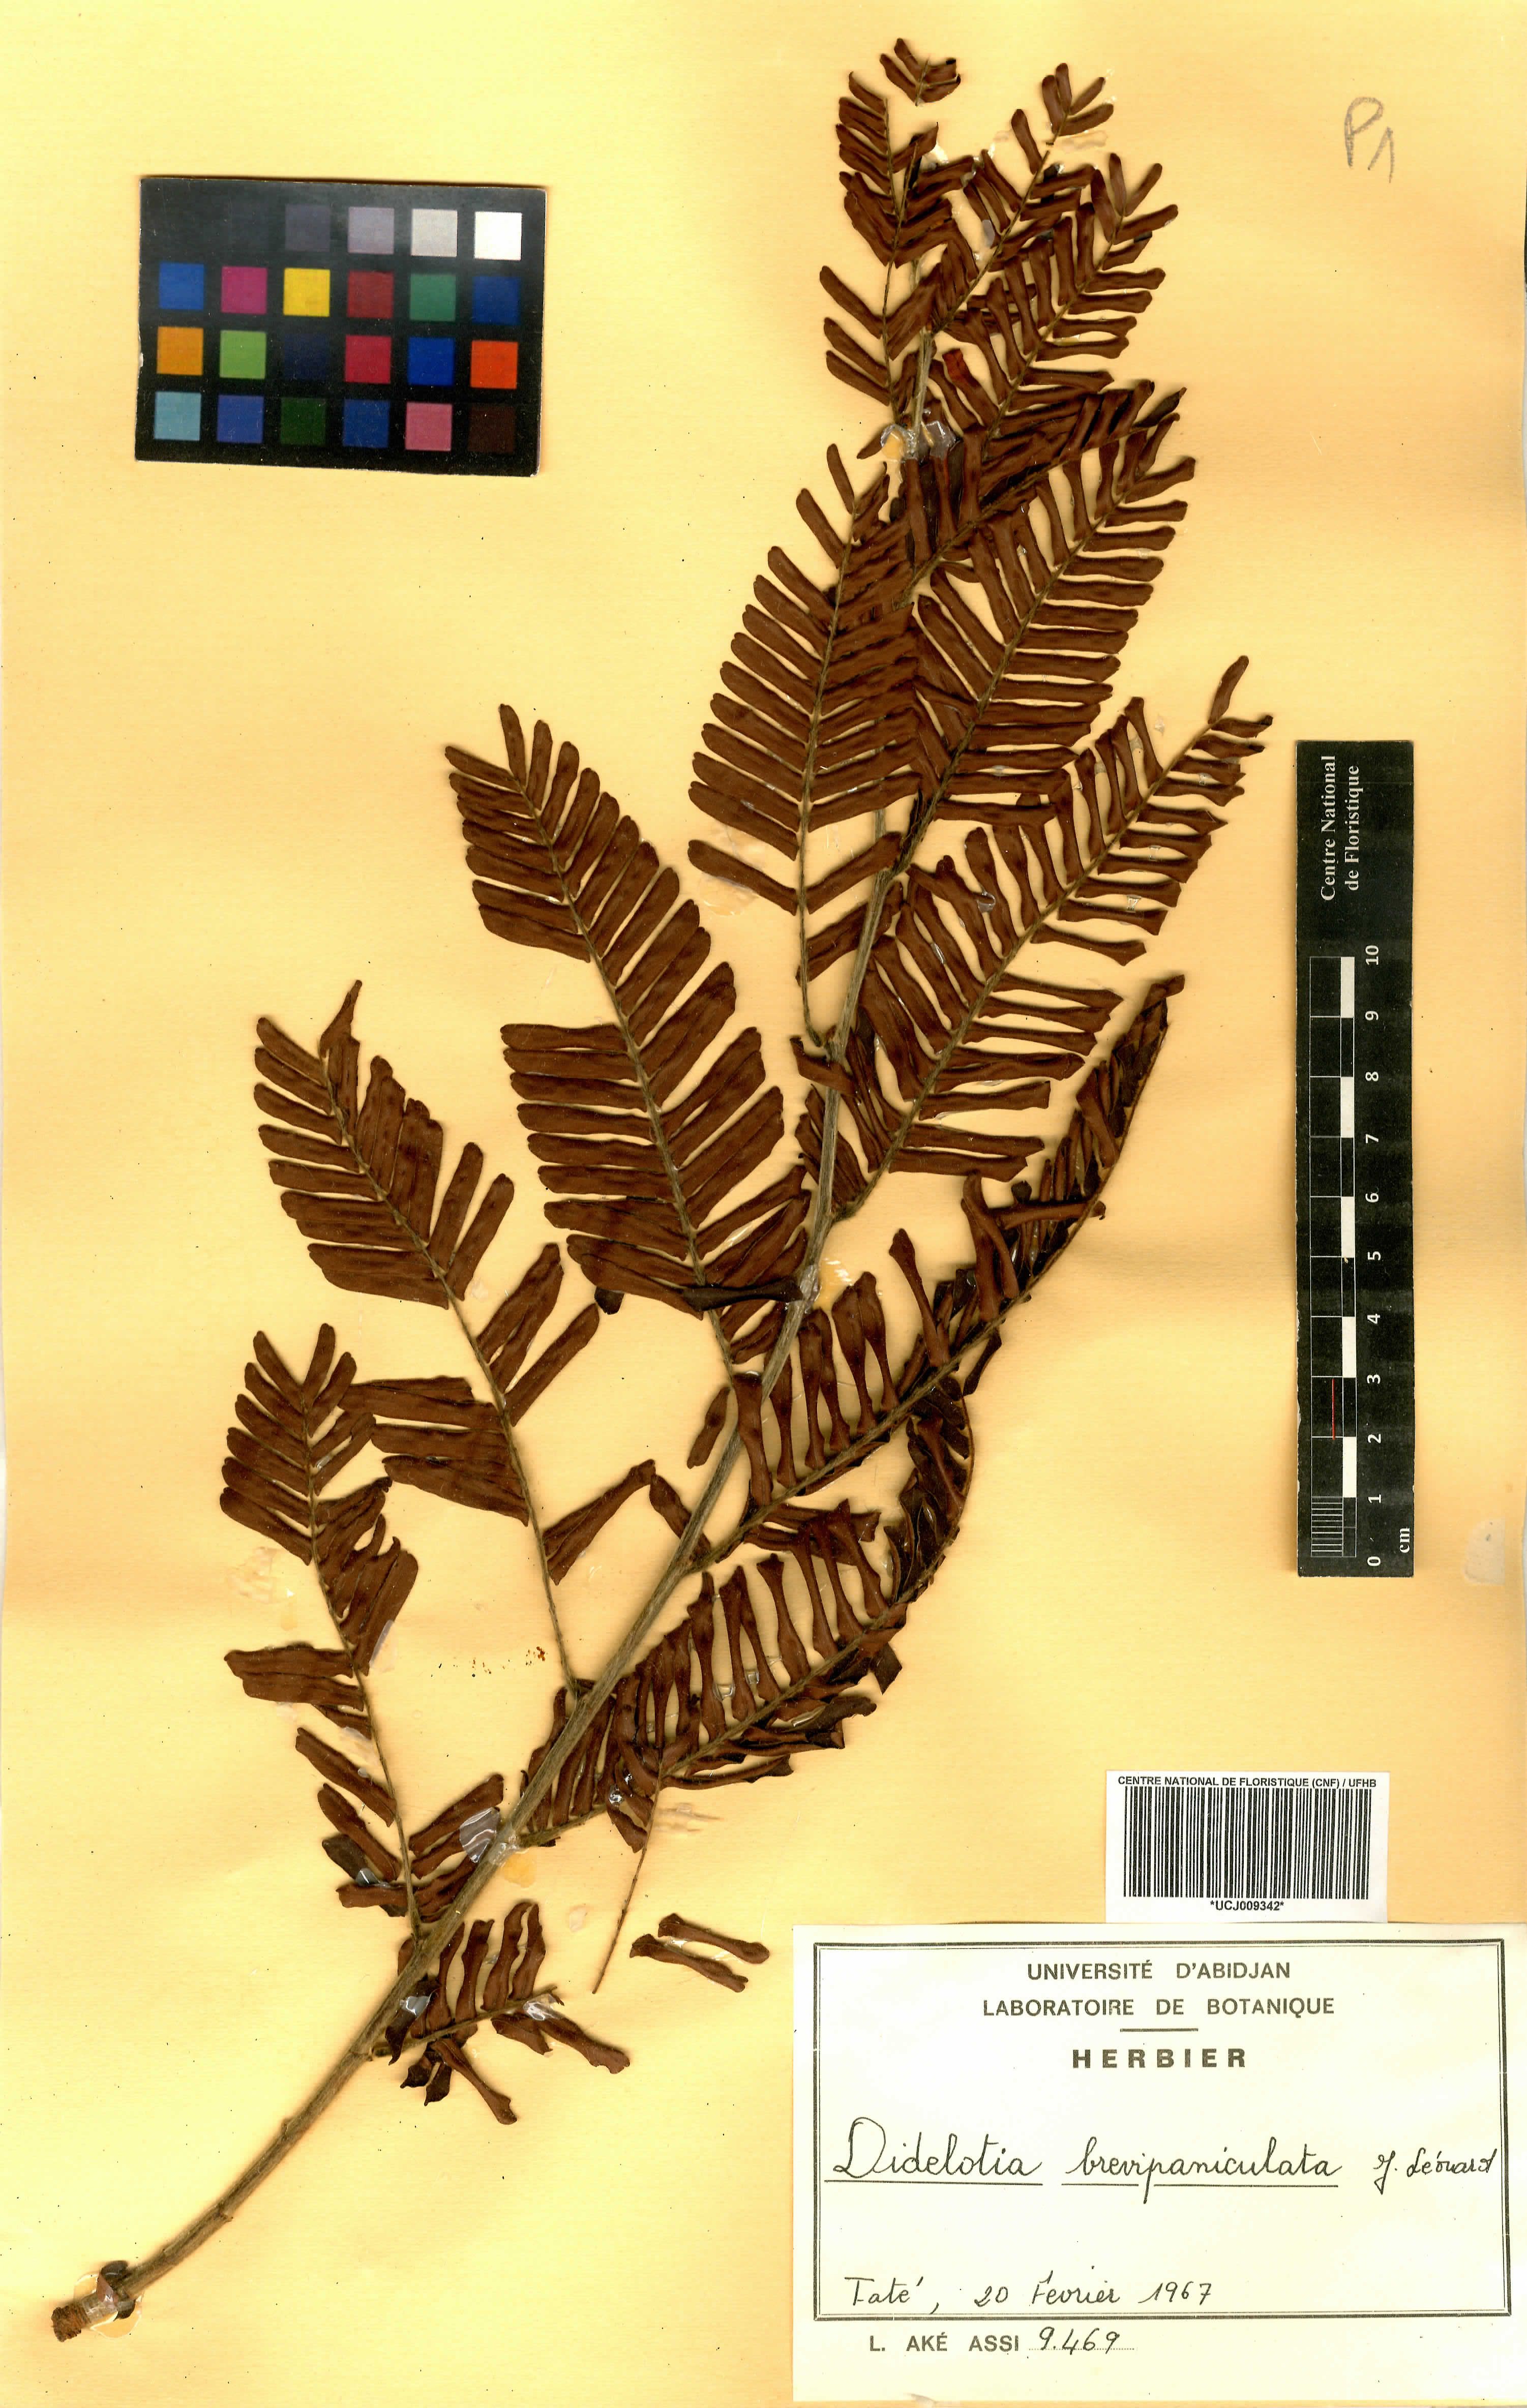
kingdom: Plantae
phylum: Tracheophyta
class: Magnoliopsida
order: Fabales
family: Fabaceae
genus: Dialium
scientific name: Dialium guineense
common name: Sierra leone-tamarind
